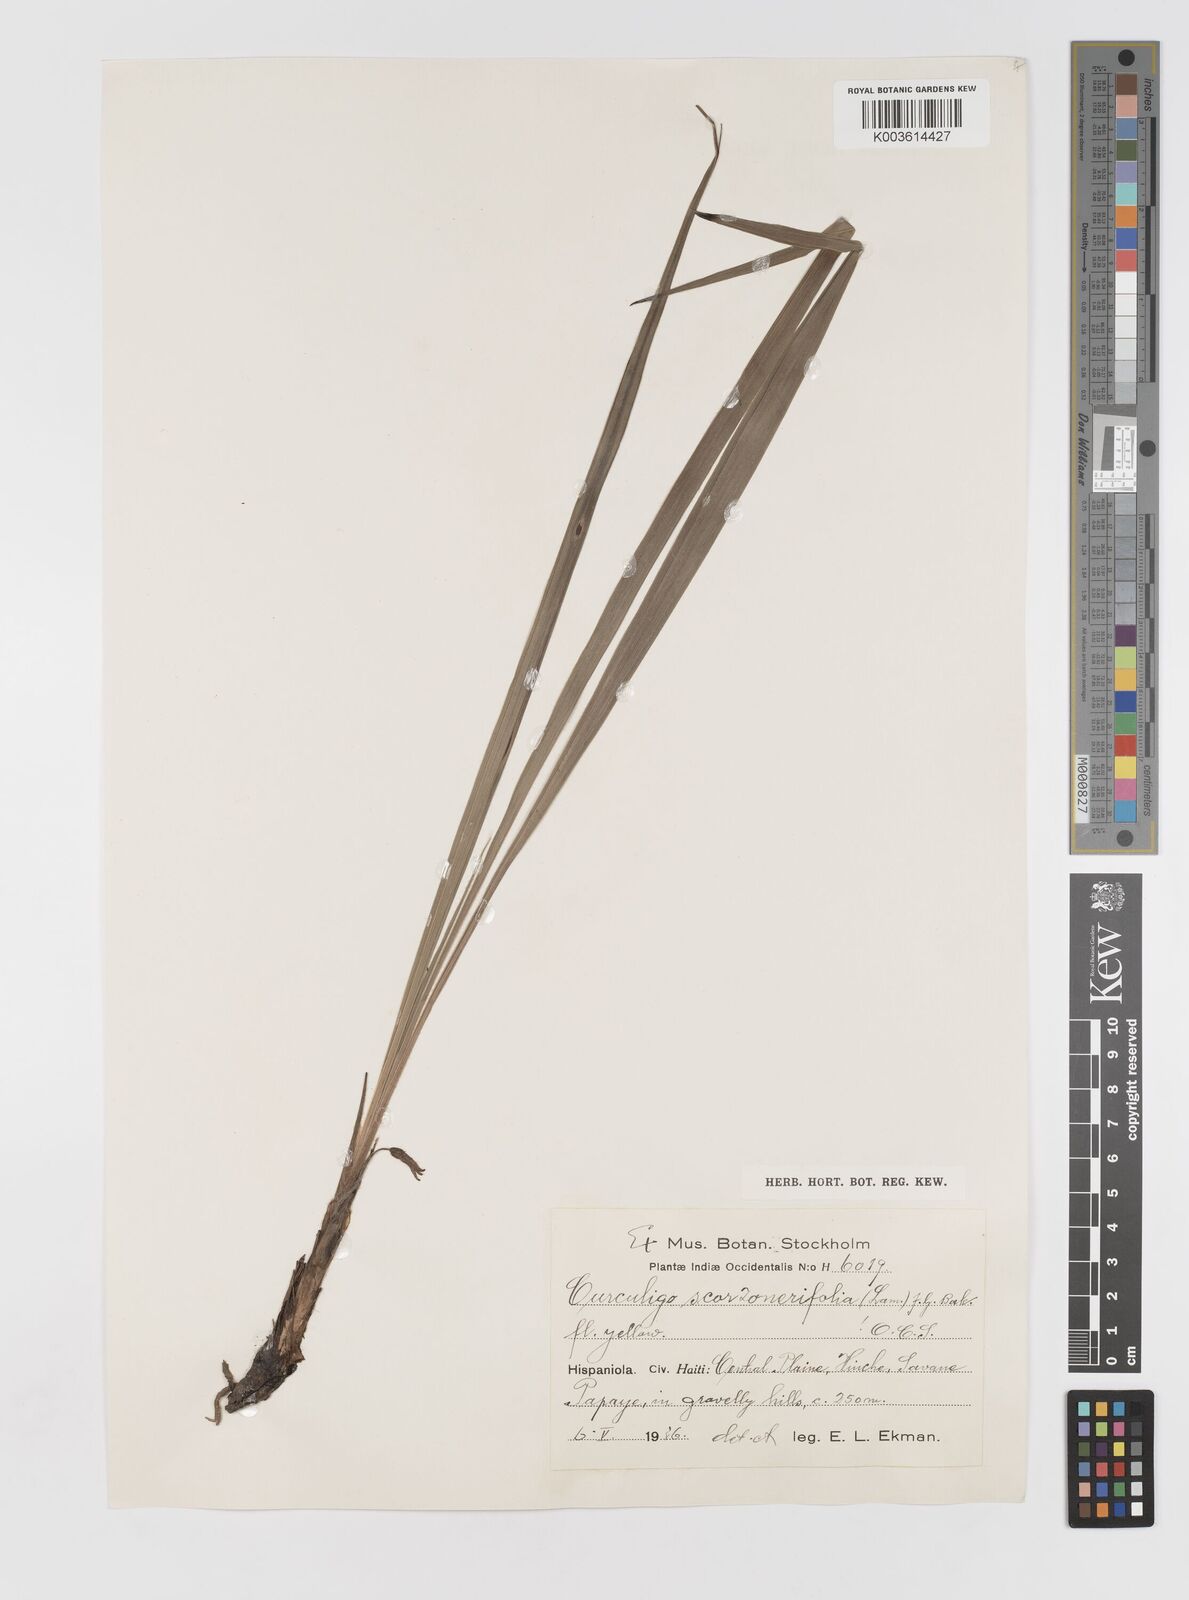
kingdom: Plantae
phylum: Tracheophyta
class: Liliopsida
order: Asparagales
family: Hypoxidaceae
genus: Curculigo
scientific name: Curculigo scorzonerifolia
